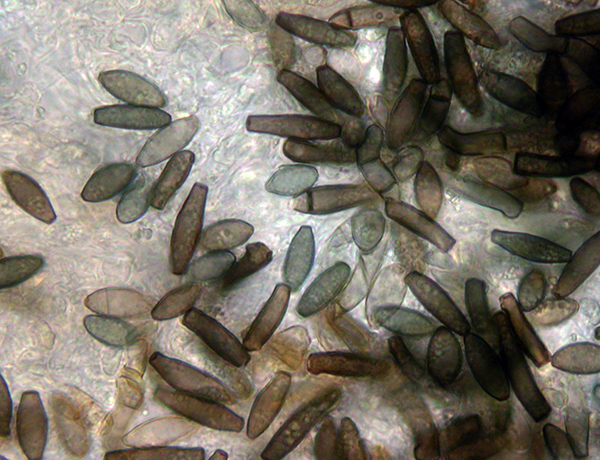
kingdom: Fungi
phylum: Ascomycota
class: Sordariomycetes
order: Sordariales
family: Helminthosphaeriaceae
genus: Helminthosphaeria
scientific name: Helminthosphaeria hyphodermae
